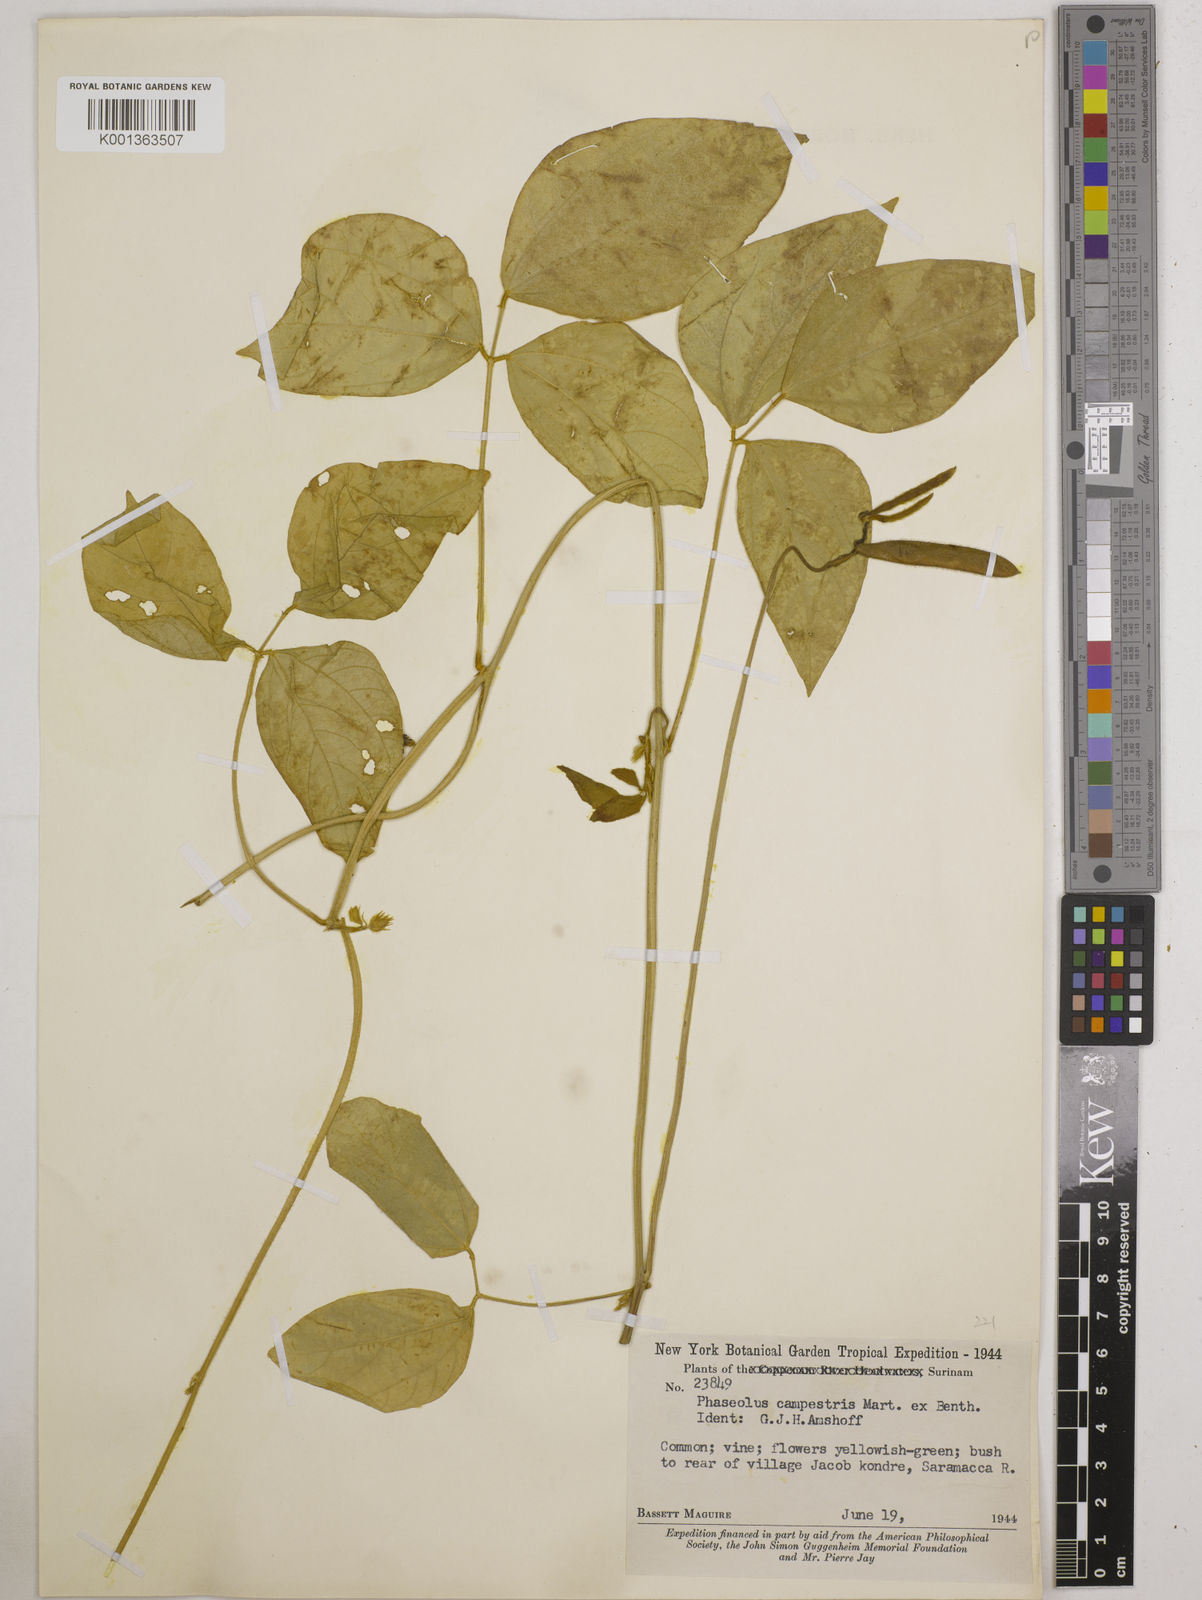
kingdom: Plantae
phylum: Tracheophyta
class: Magnoliopsida
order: Fabales
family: Fabaceae
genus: Vigna
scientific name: Vigna juruana
